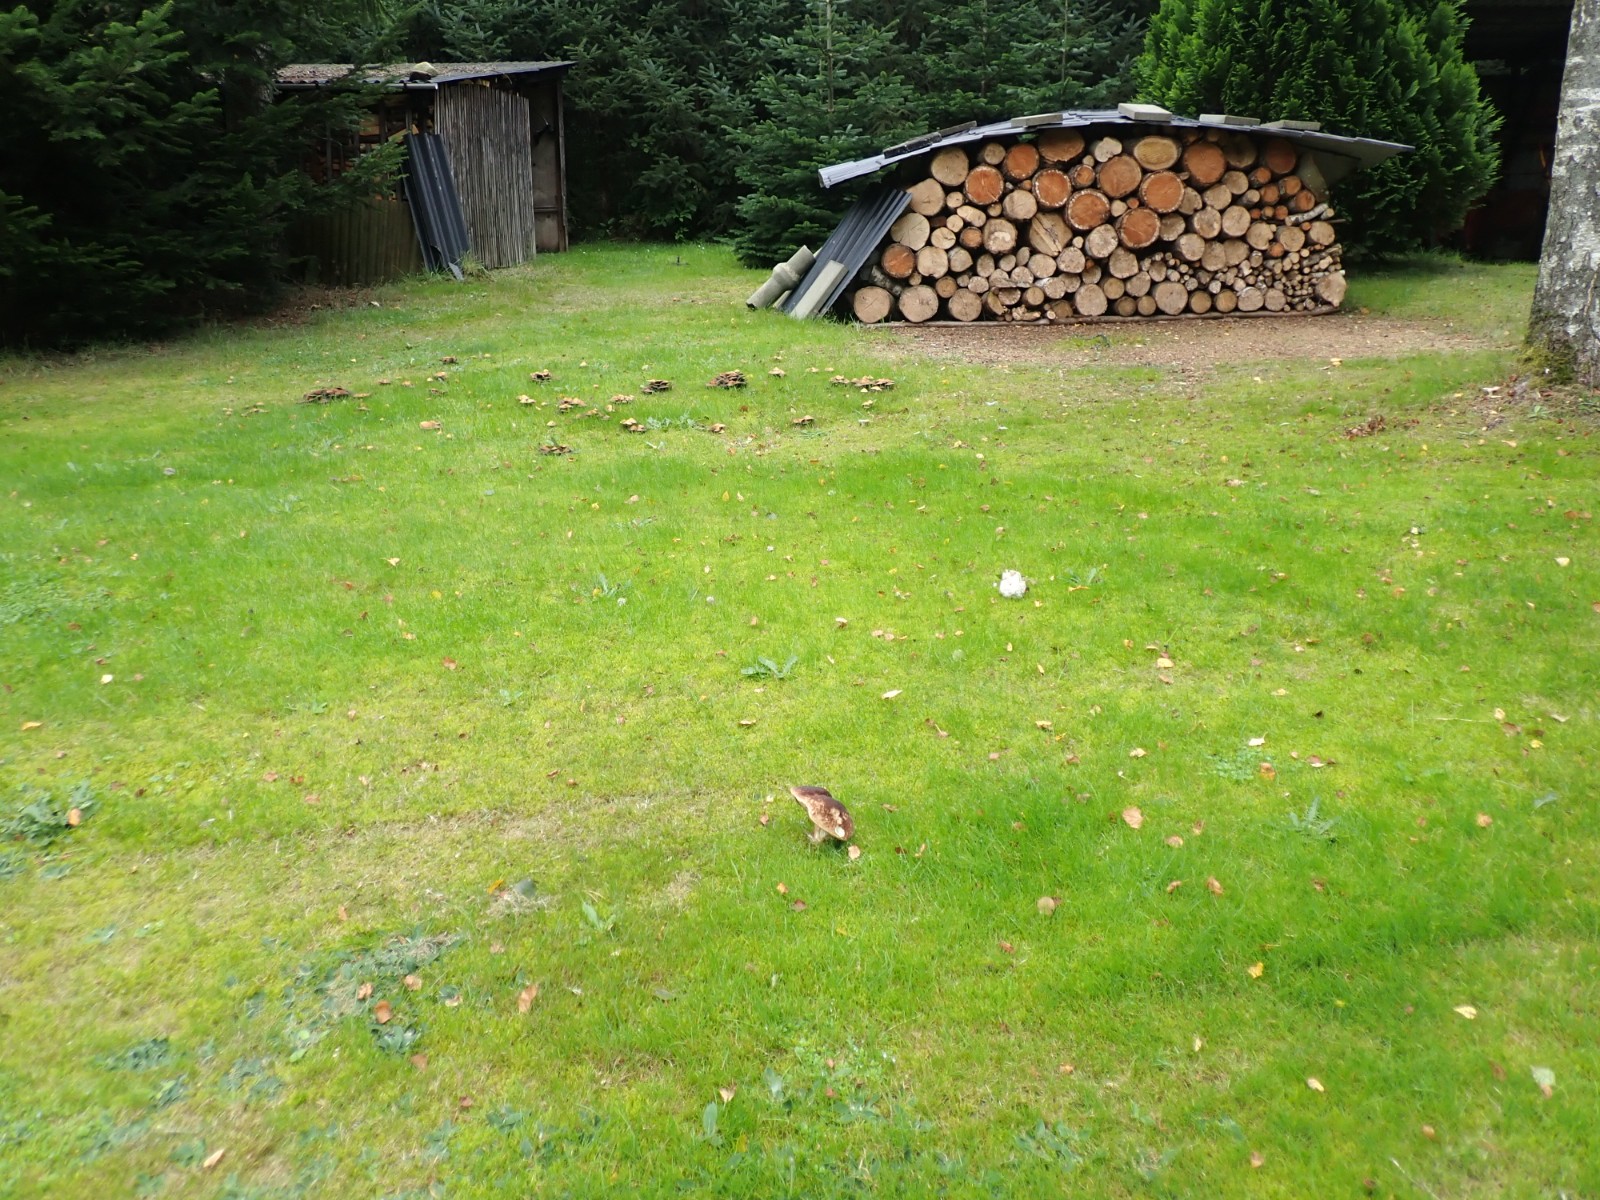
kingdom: Fungi
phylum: Basidiomycota
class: Agaricomycetes
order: Agaricales
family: Agaricaceae
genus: Lepiota
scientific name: Lepiota cristata
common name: stinkende parasolhat
